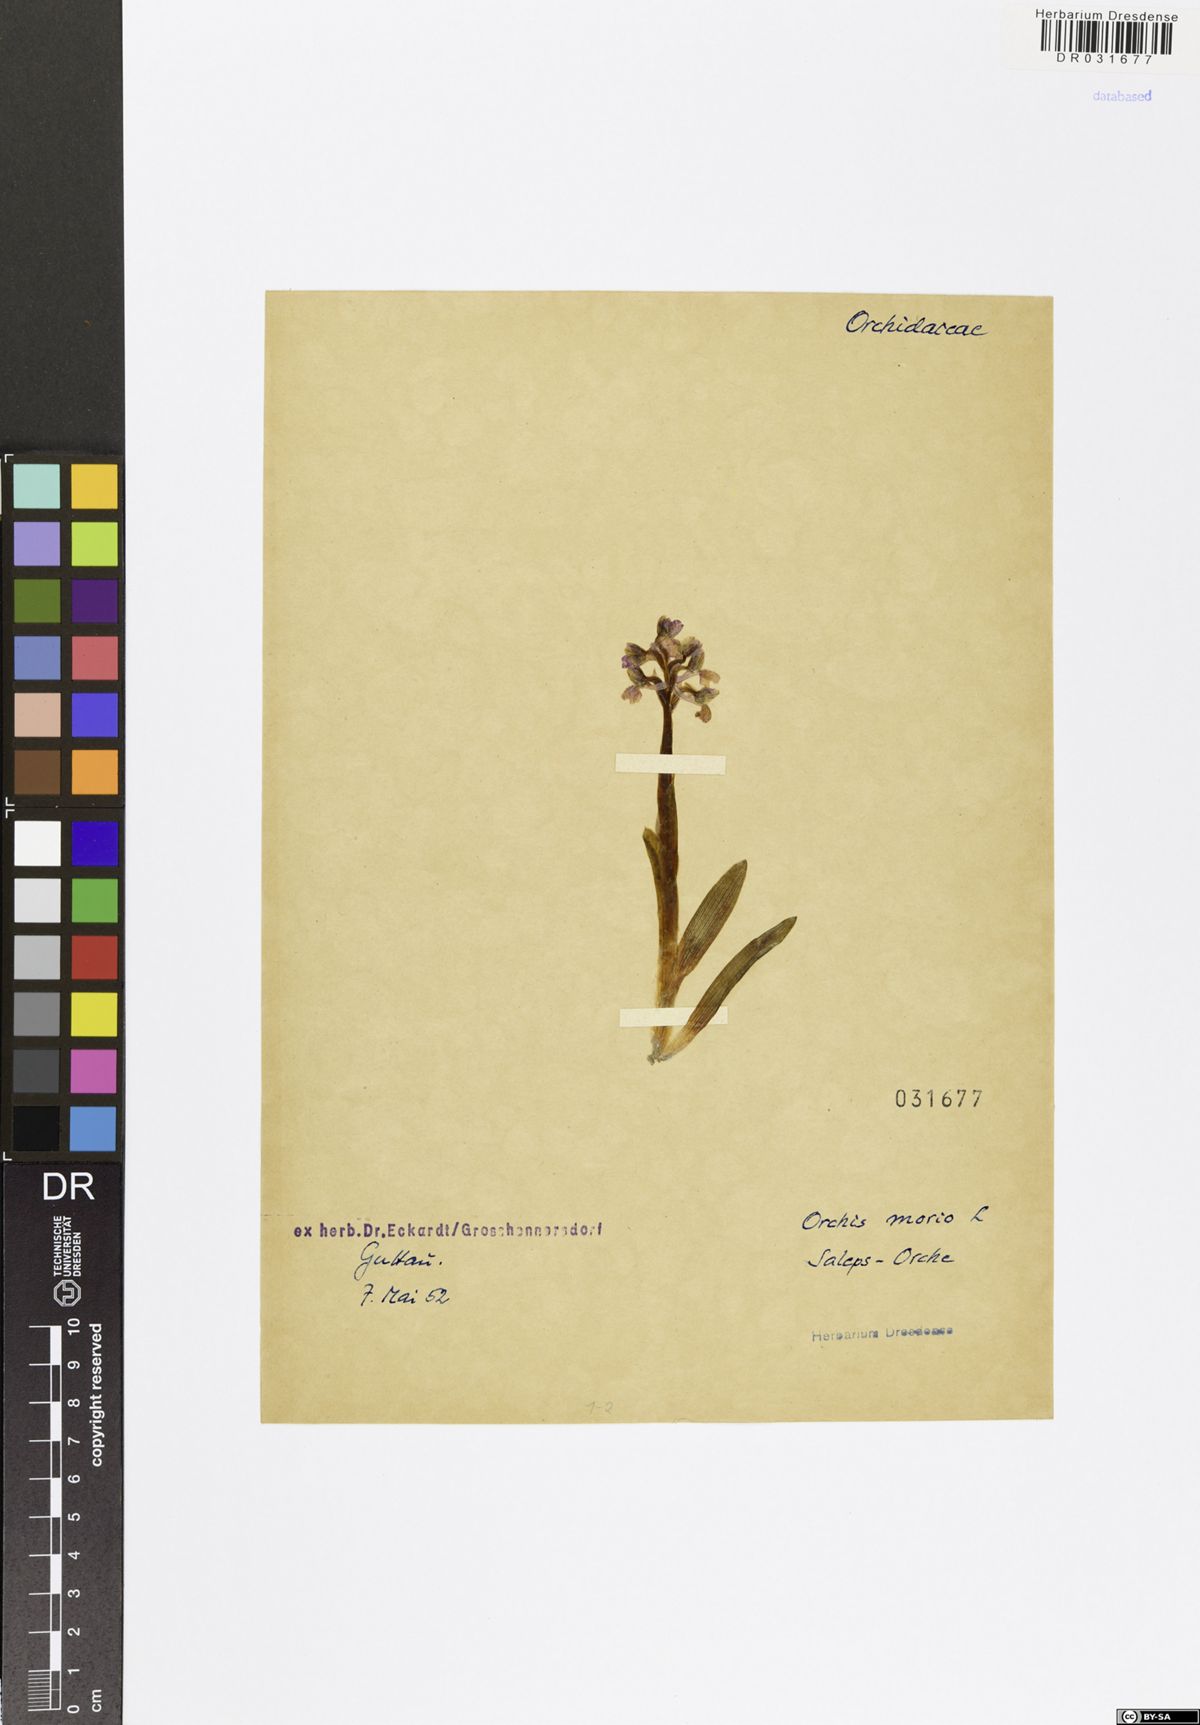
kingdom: Plantae
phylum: Tracheophyta
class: Liliopsida
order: Asparagales
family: Orchidaceae
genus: Anacamptis
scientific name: Anacamptis morio
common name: Green-winged orchid
